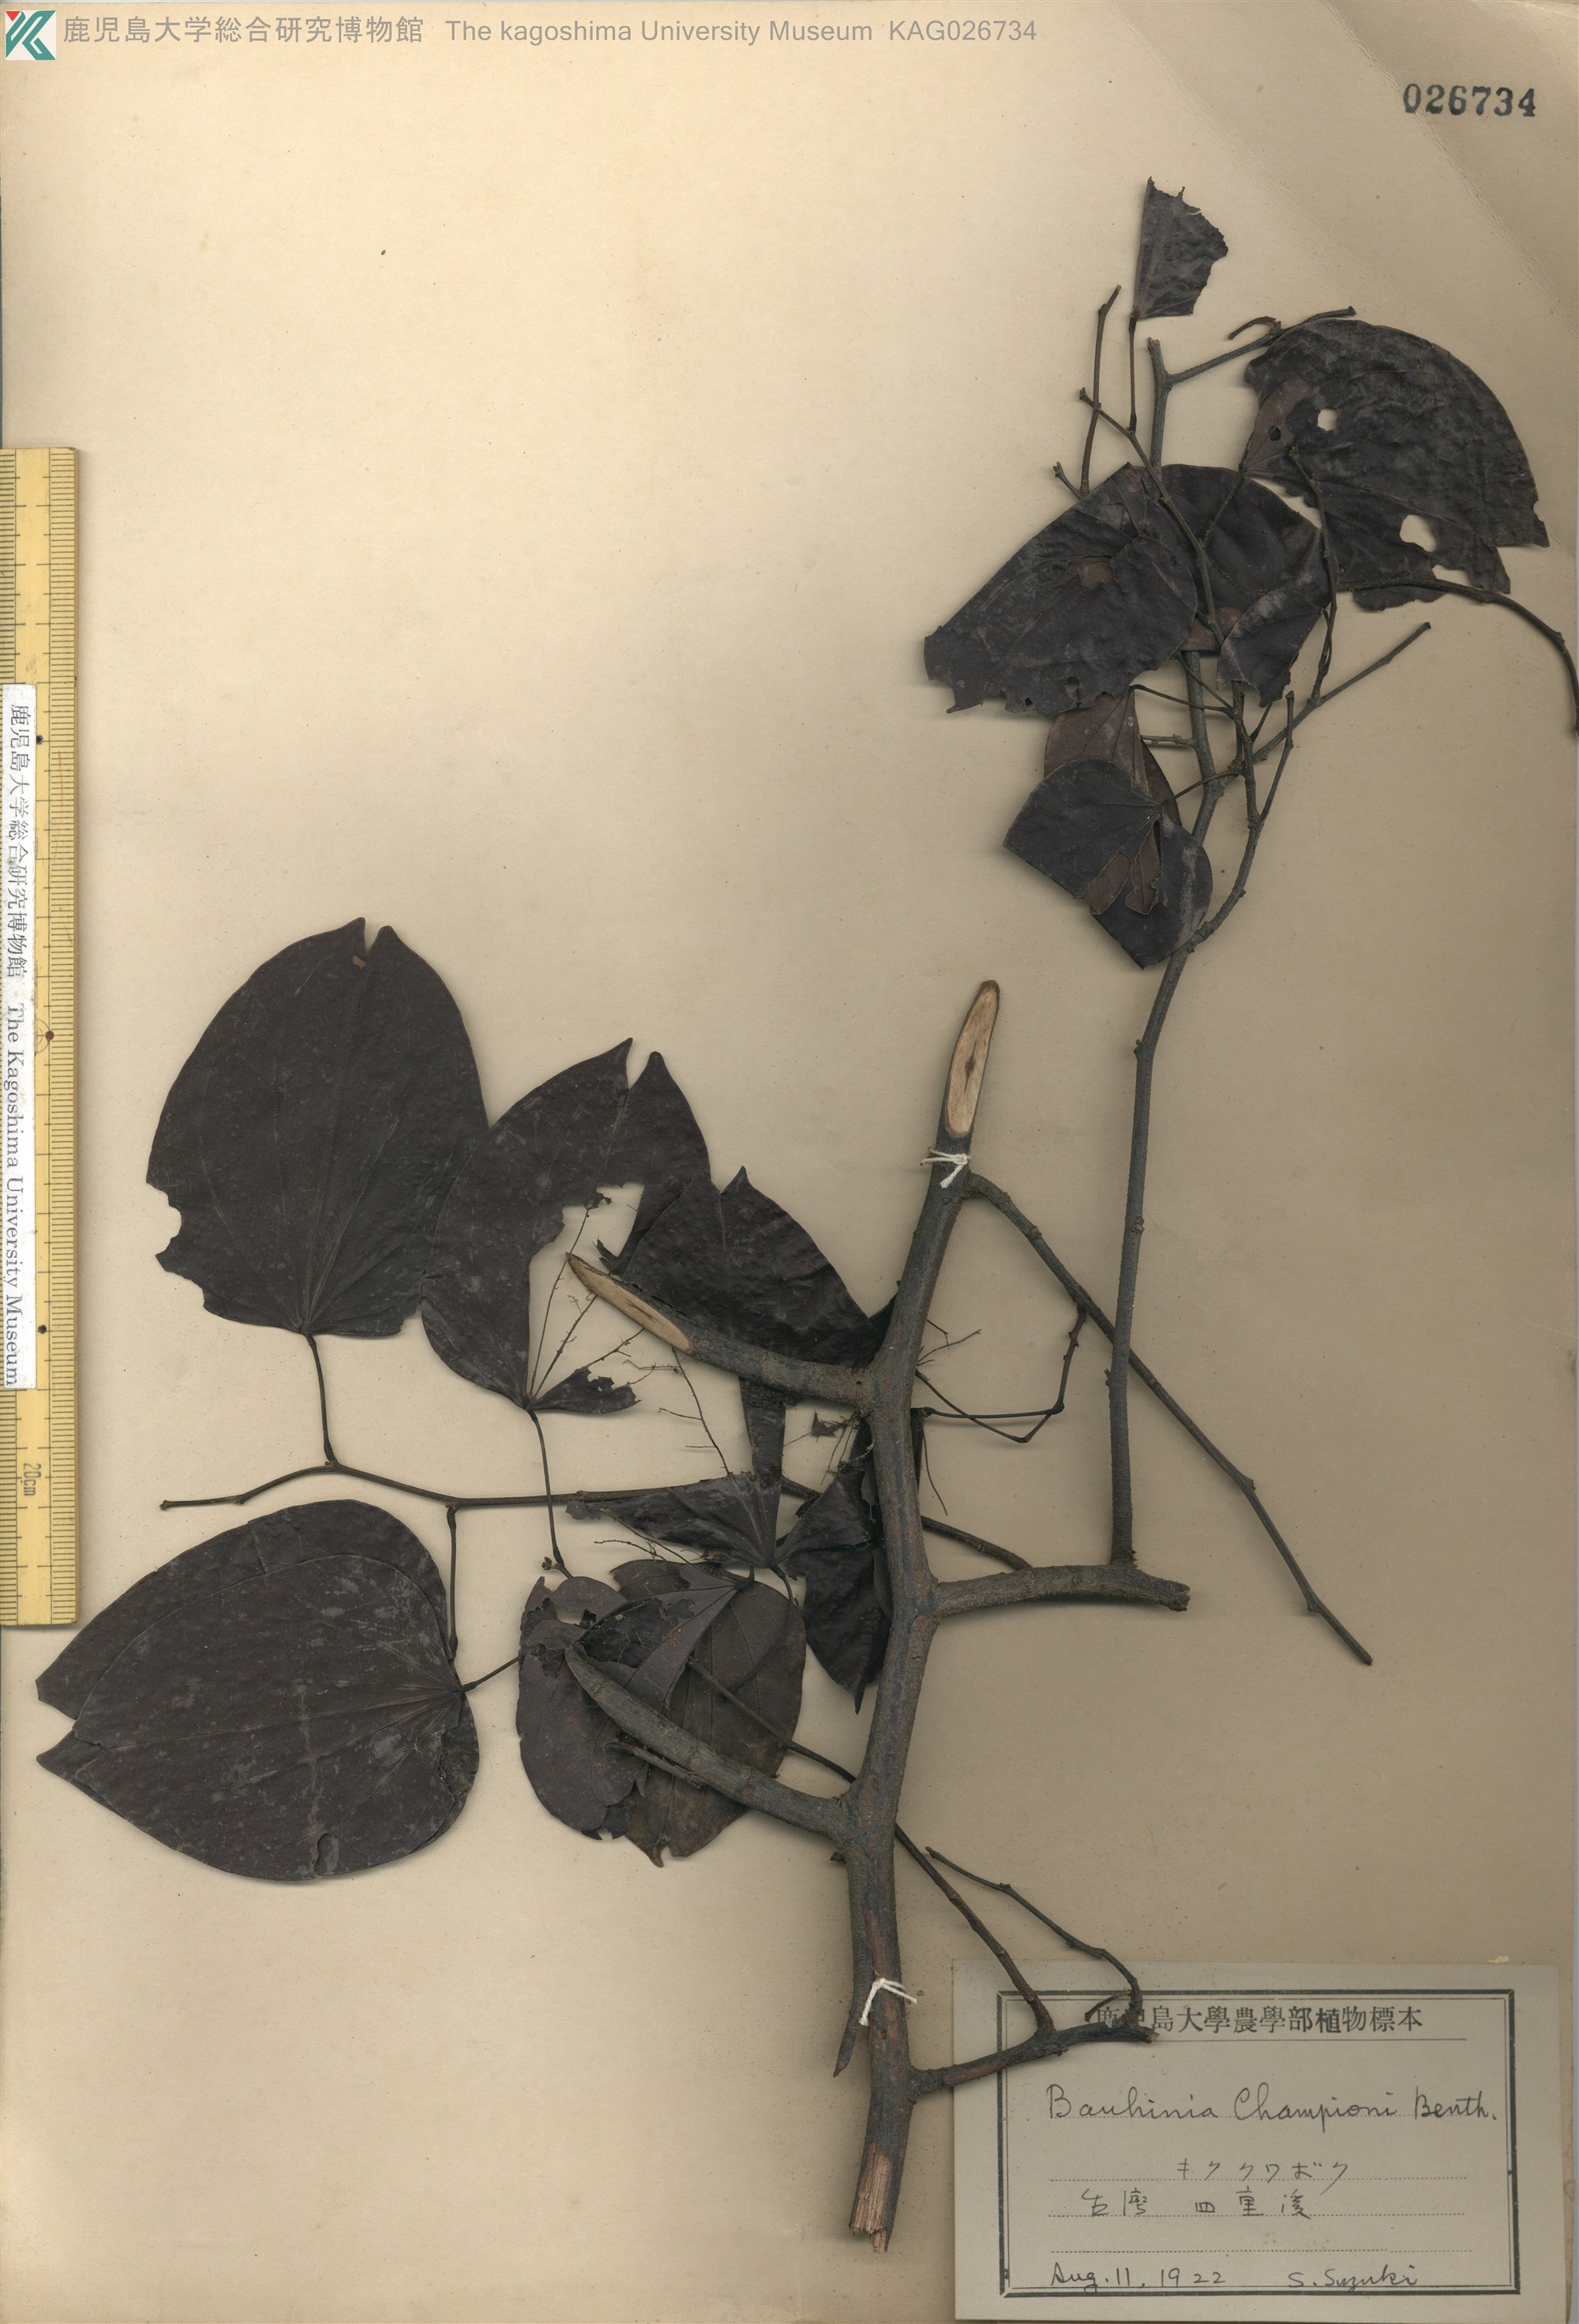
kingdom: Plantae
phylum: Tracheophyta
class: Magnoliopsida
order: Fabales
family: Fabaceae
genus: Phanera
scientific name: Phanera championii
